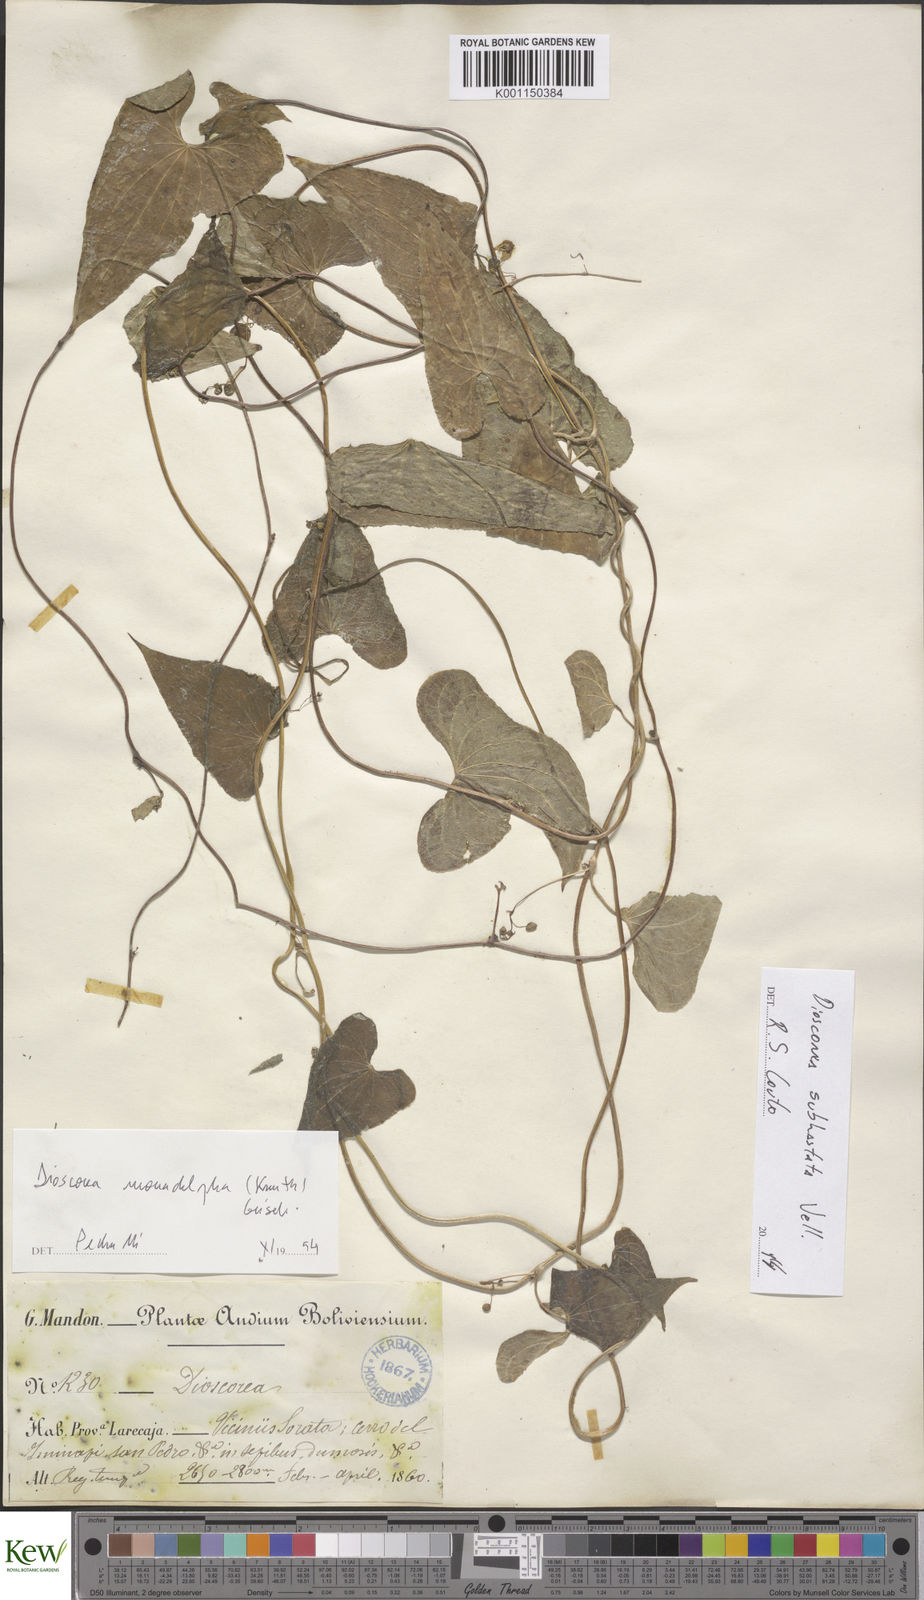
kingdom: Plantae
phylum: Tracheophyta
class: Liliopsida
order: Dioscoreales
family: Dioscoreaceae
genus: Dioscorea
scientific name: Dioscorea subhastata
